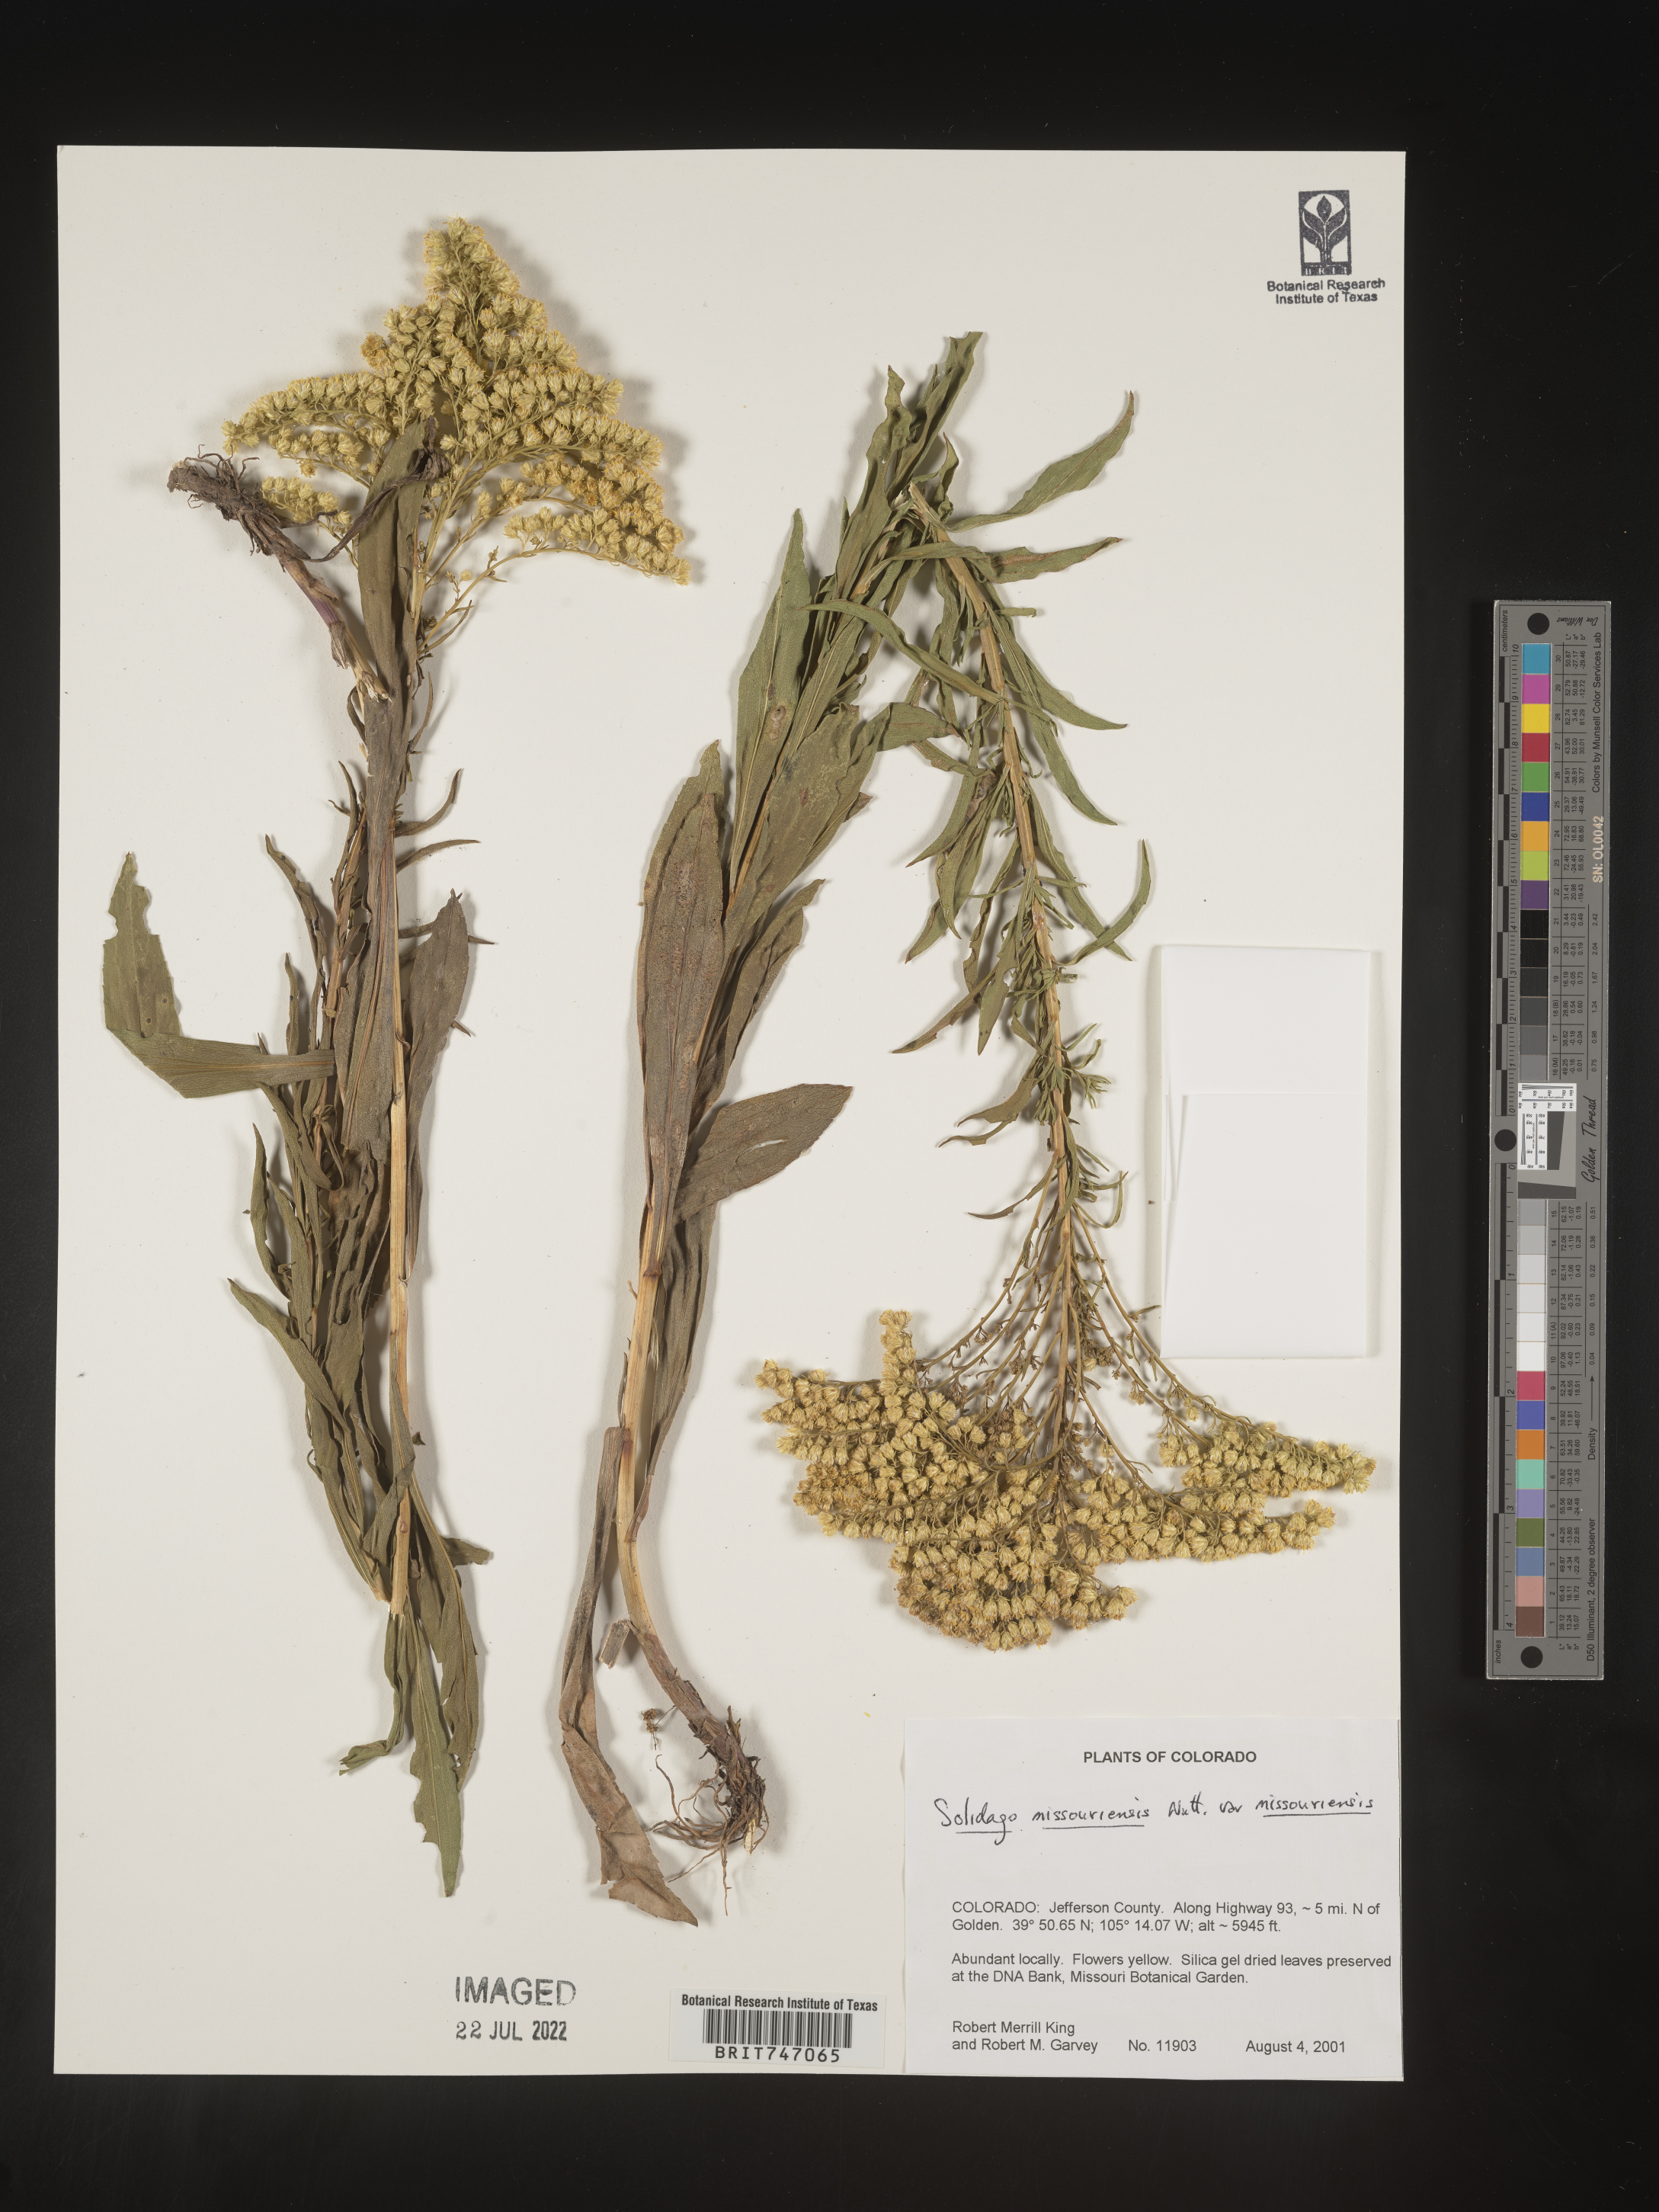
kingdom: Plantae
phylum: Tracheophyta
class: Magnoliopsida
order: Asterales
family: Asteraceae
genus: Solidago
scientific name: Solidago missouriensis
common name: Prairie goldenrod
